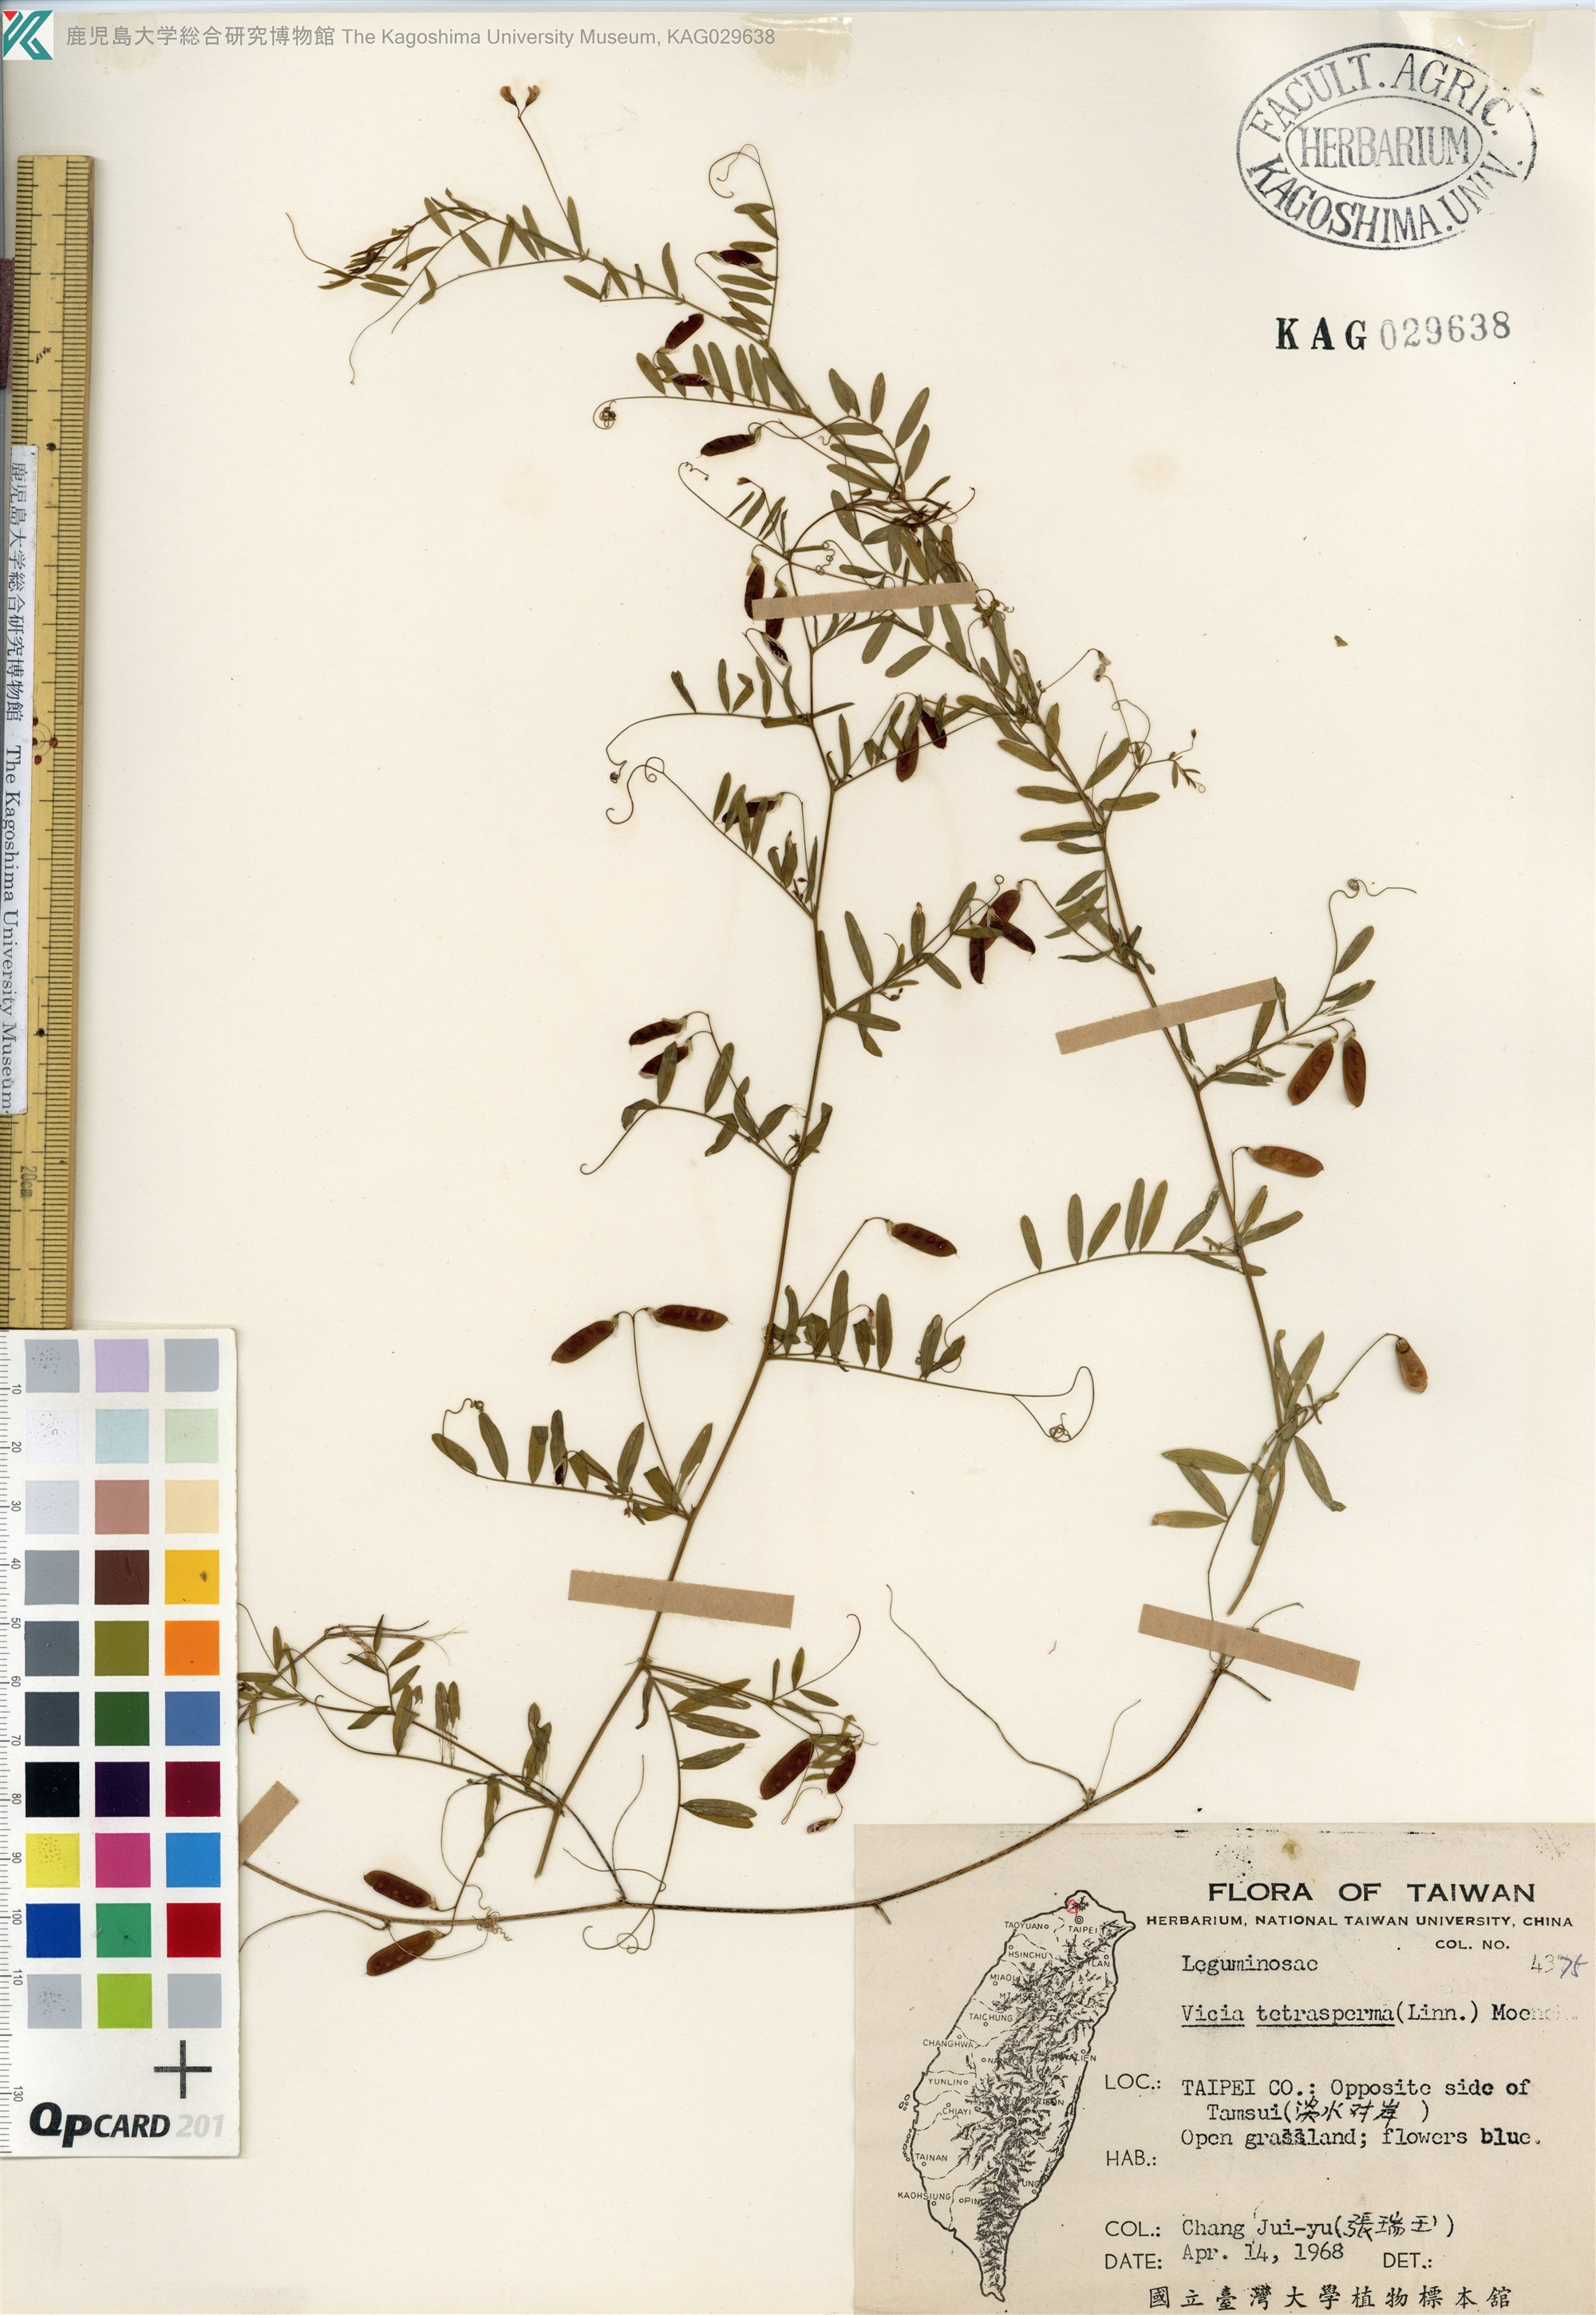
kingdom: Plantae
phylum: Tracheophyta
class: Magnoliopsida
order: Fabales
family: Fabaceae
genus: Vicia
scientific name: Vicia tetrasperma
